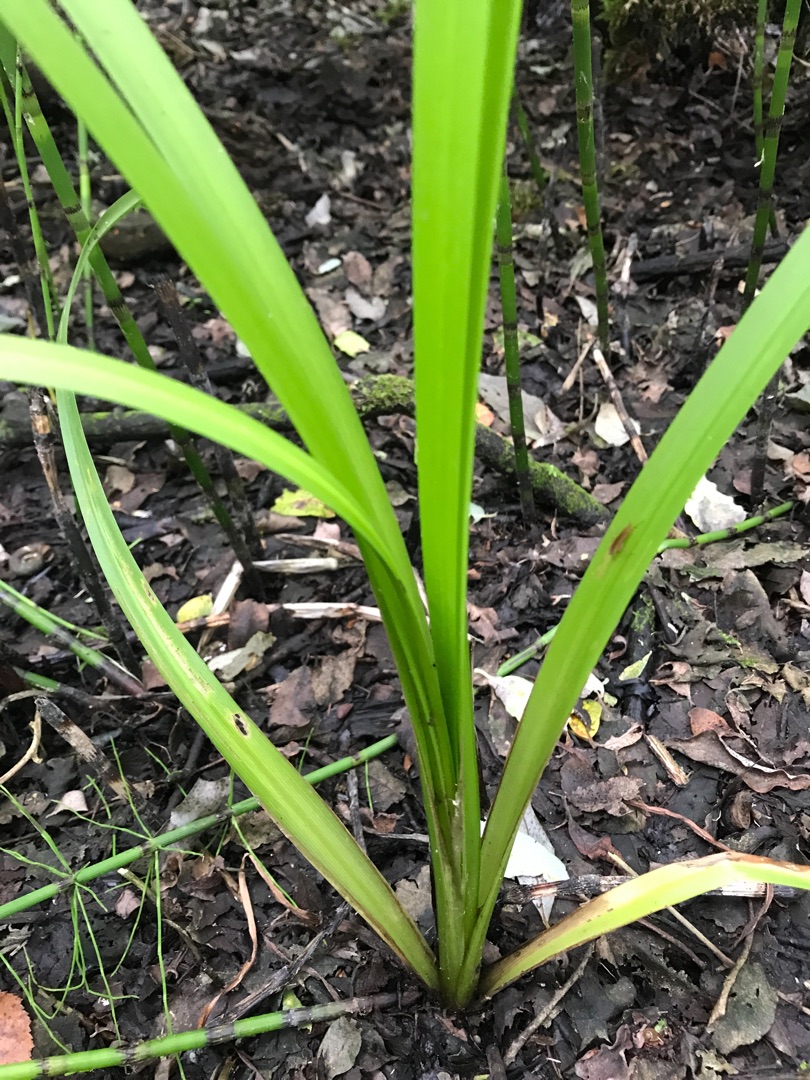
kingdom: Plantae
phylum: Tracheophyta
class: Liliopsida
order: Poales
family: Typhaceae
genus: Sparganium
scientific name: Sparganium erectum
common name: Grenet pindsvineknop
